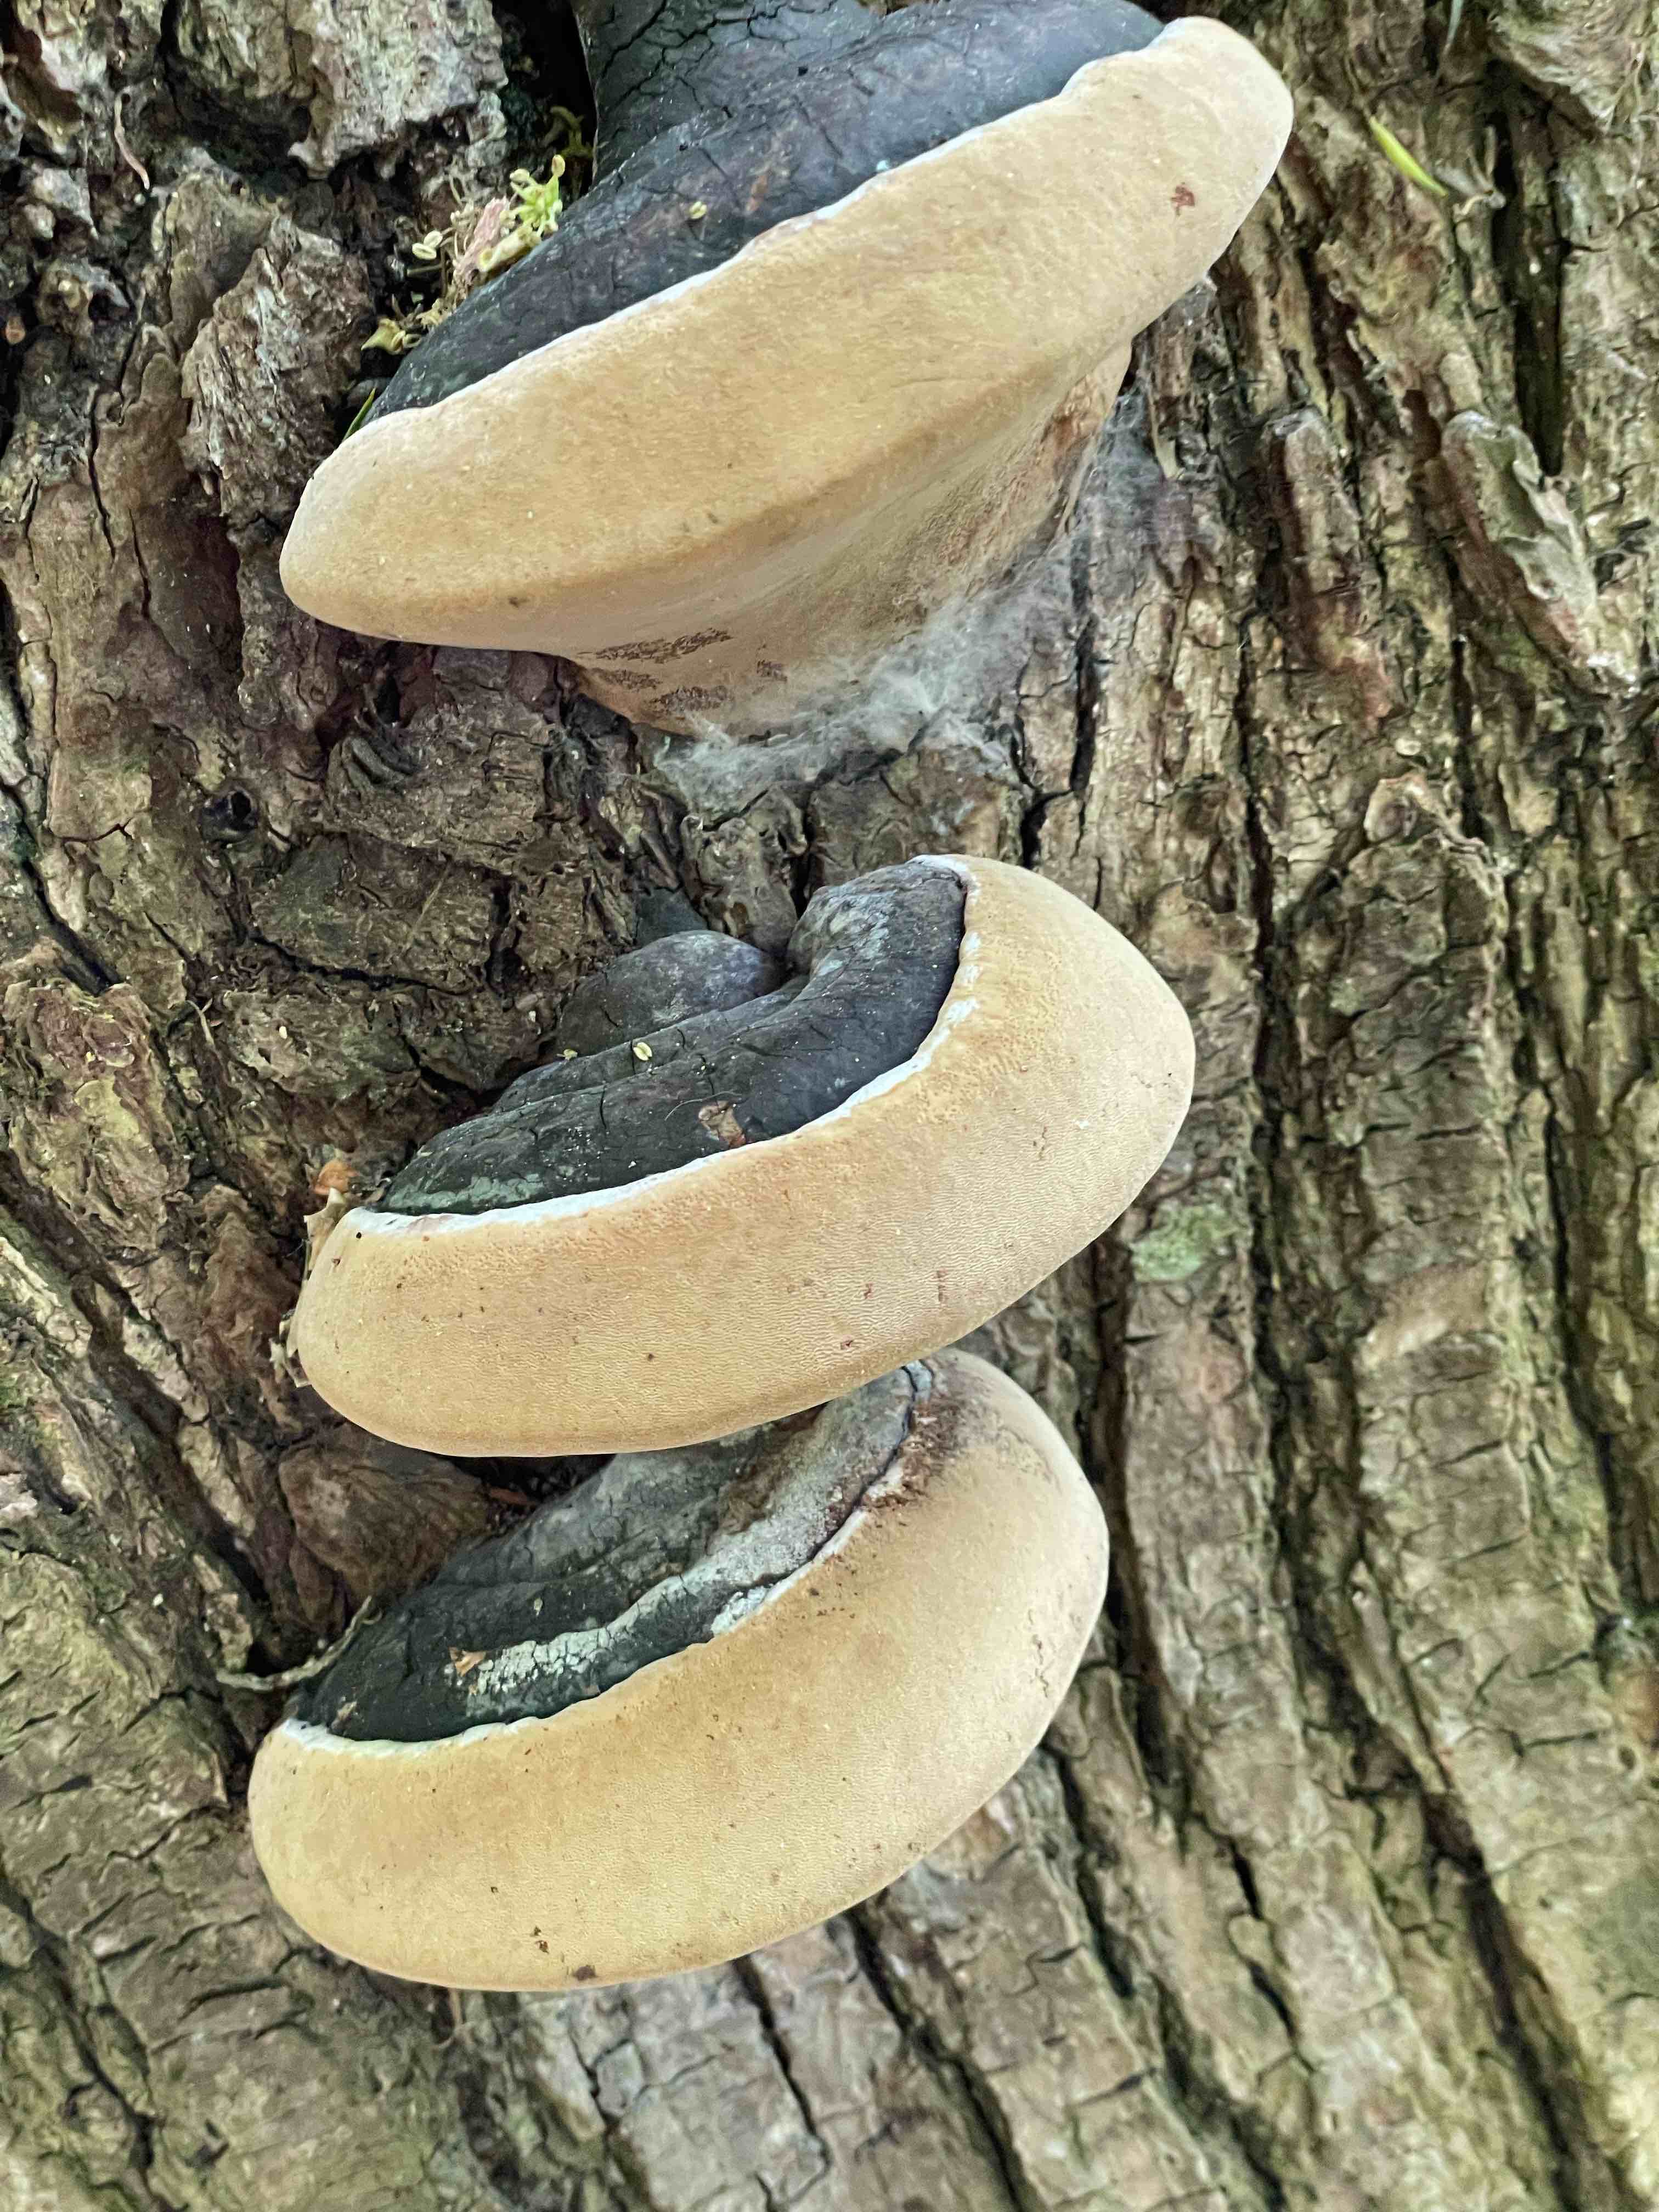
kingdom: Fungi
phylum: Basidiomycota
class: Agaricomycetes
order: Hymenochaetales
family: Hymenochaetaceae
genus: Phellinus
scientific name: Phellinus igniarius
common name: almindelig ildporesvamp
